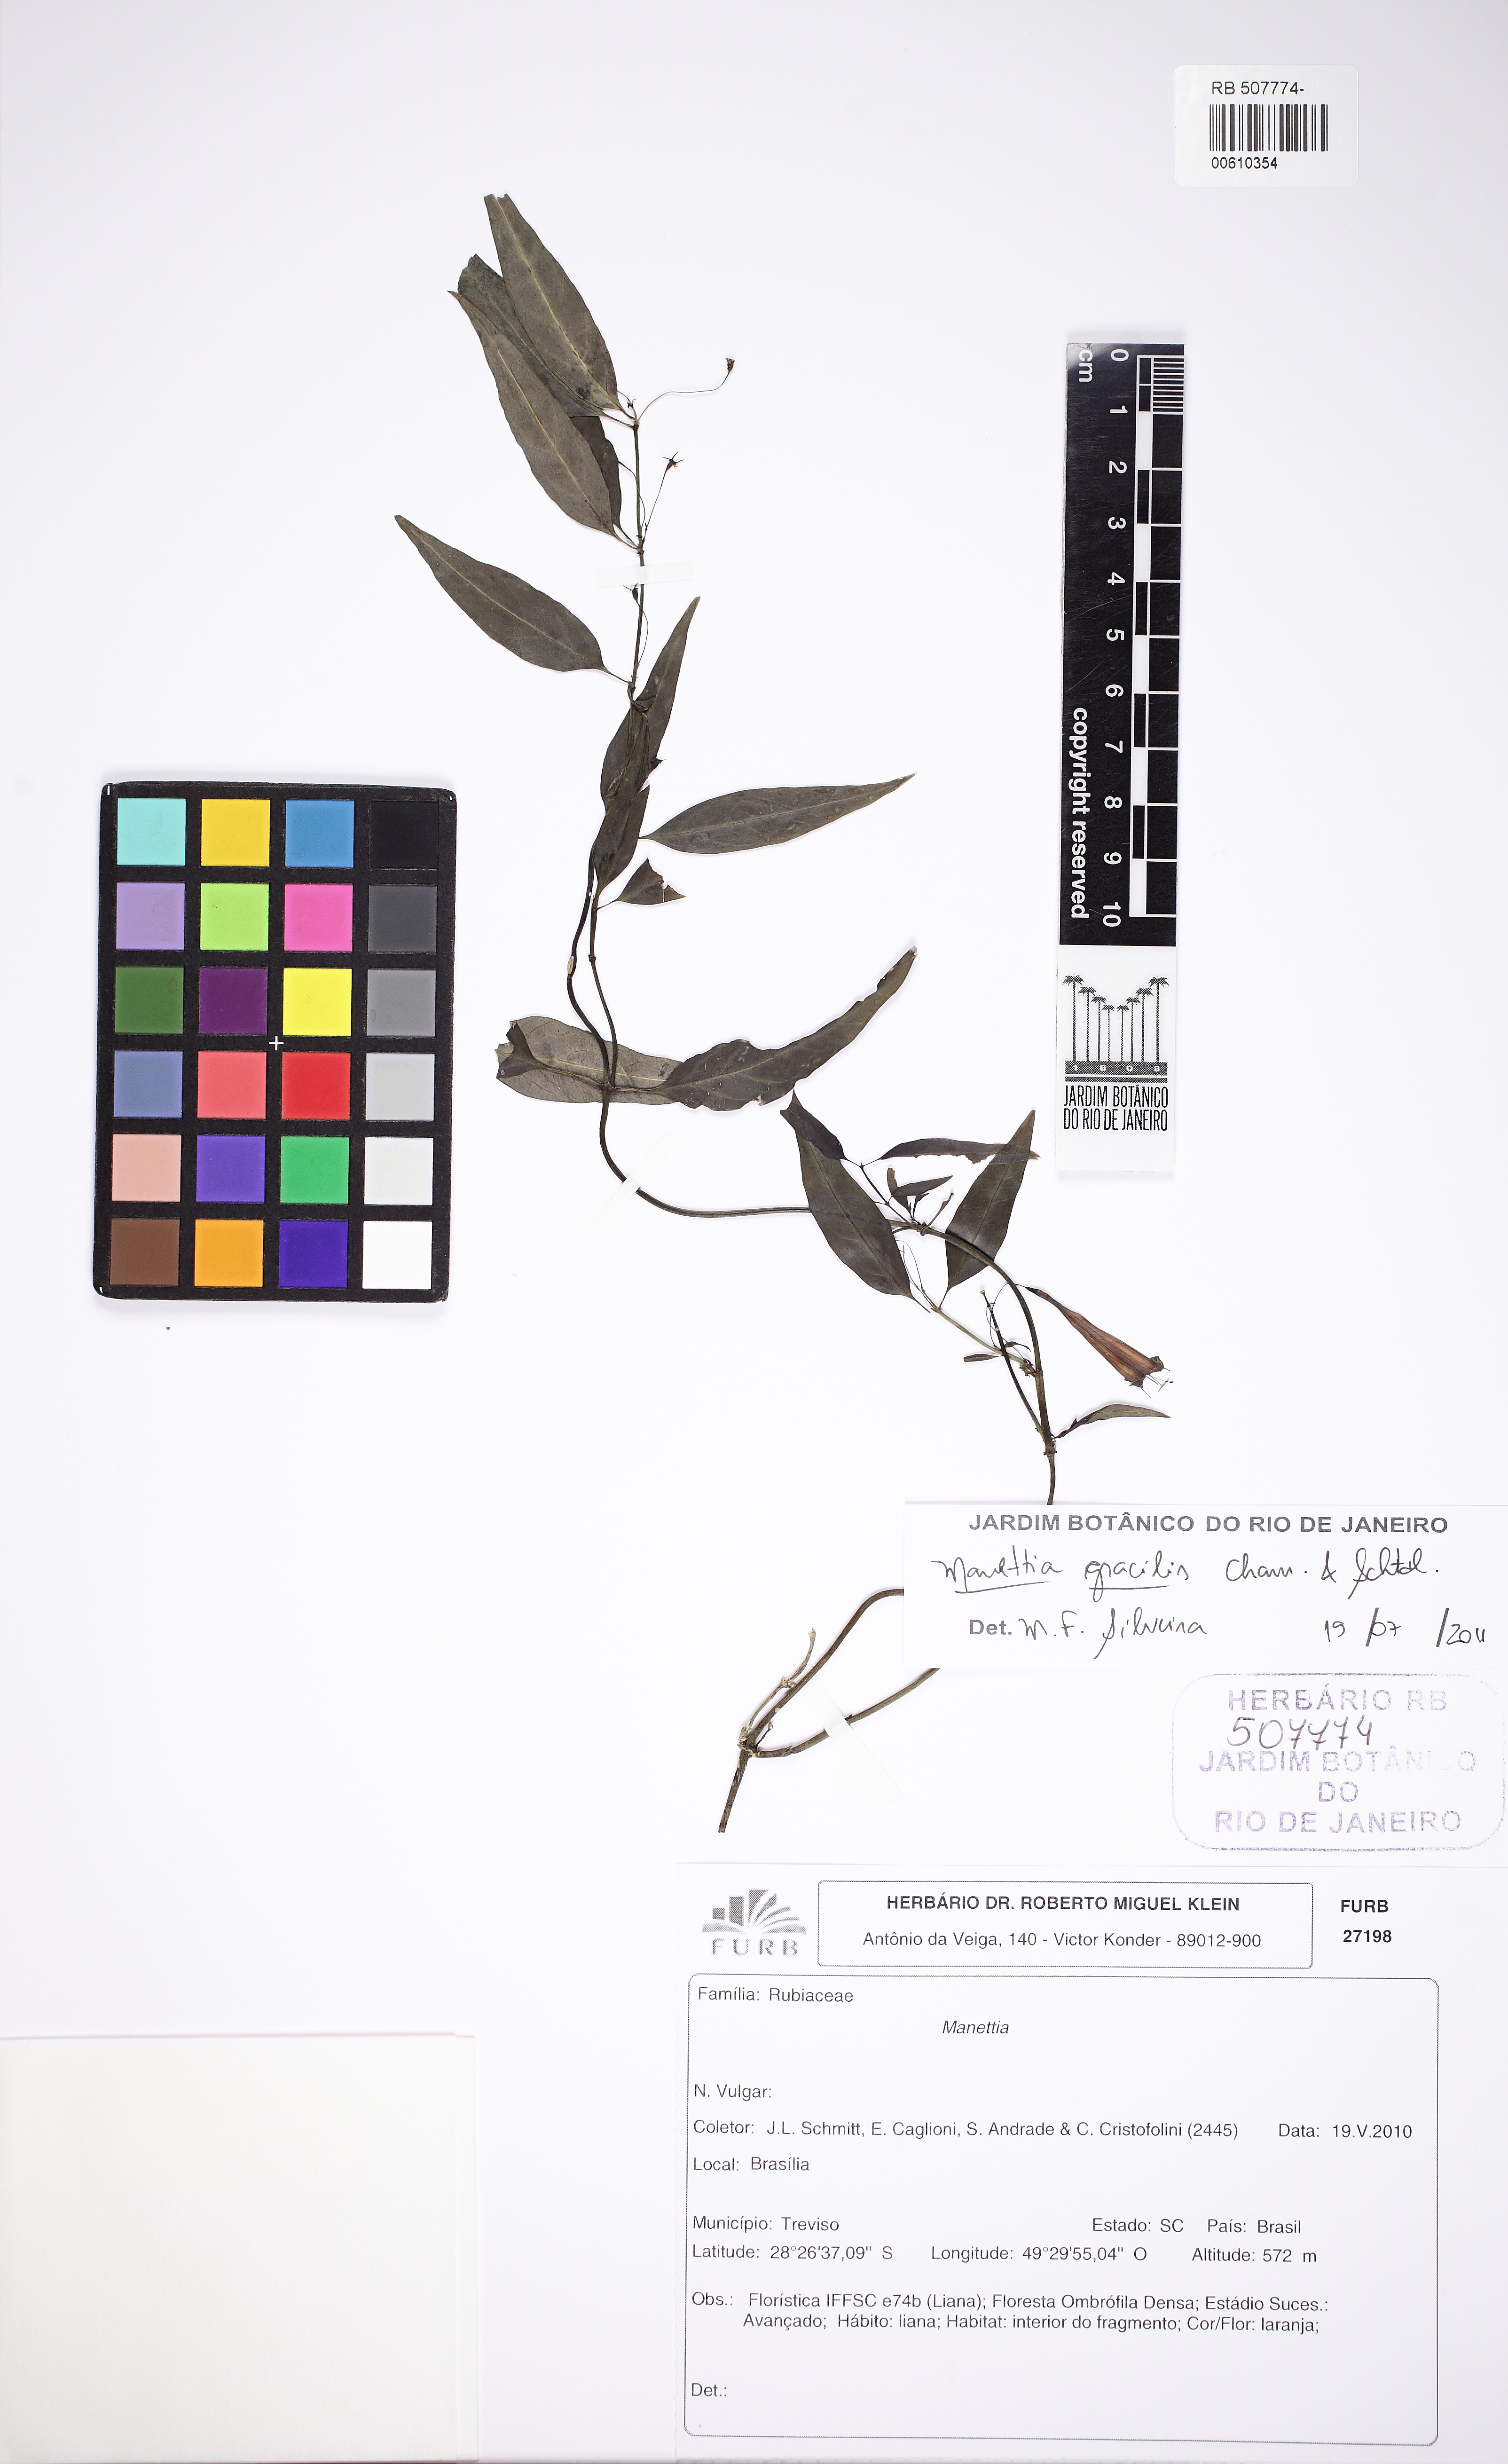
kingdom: Plantae
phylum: Tracheophyta
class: Magnoliopsida
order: Gentianales
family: Rubiaceae
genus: Manettia
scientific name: Manettia gracilis
